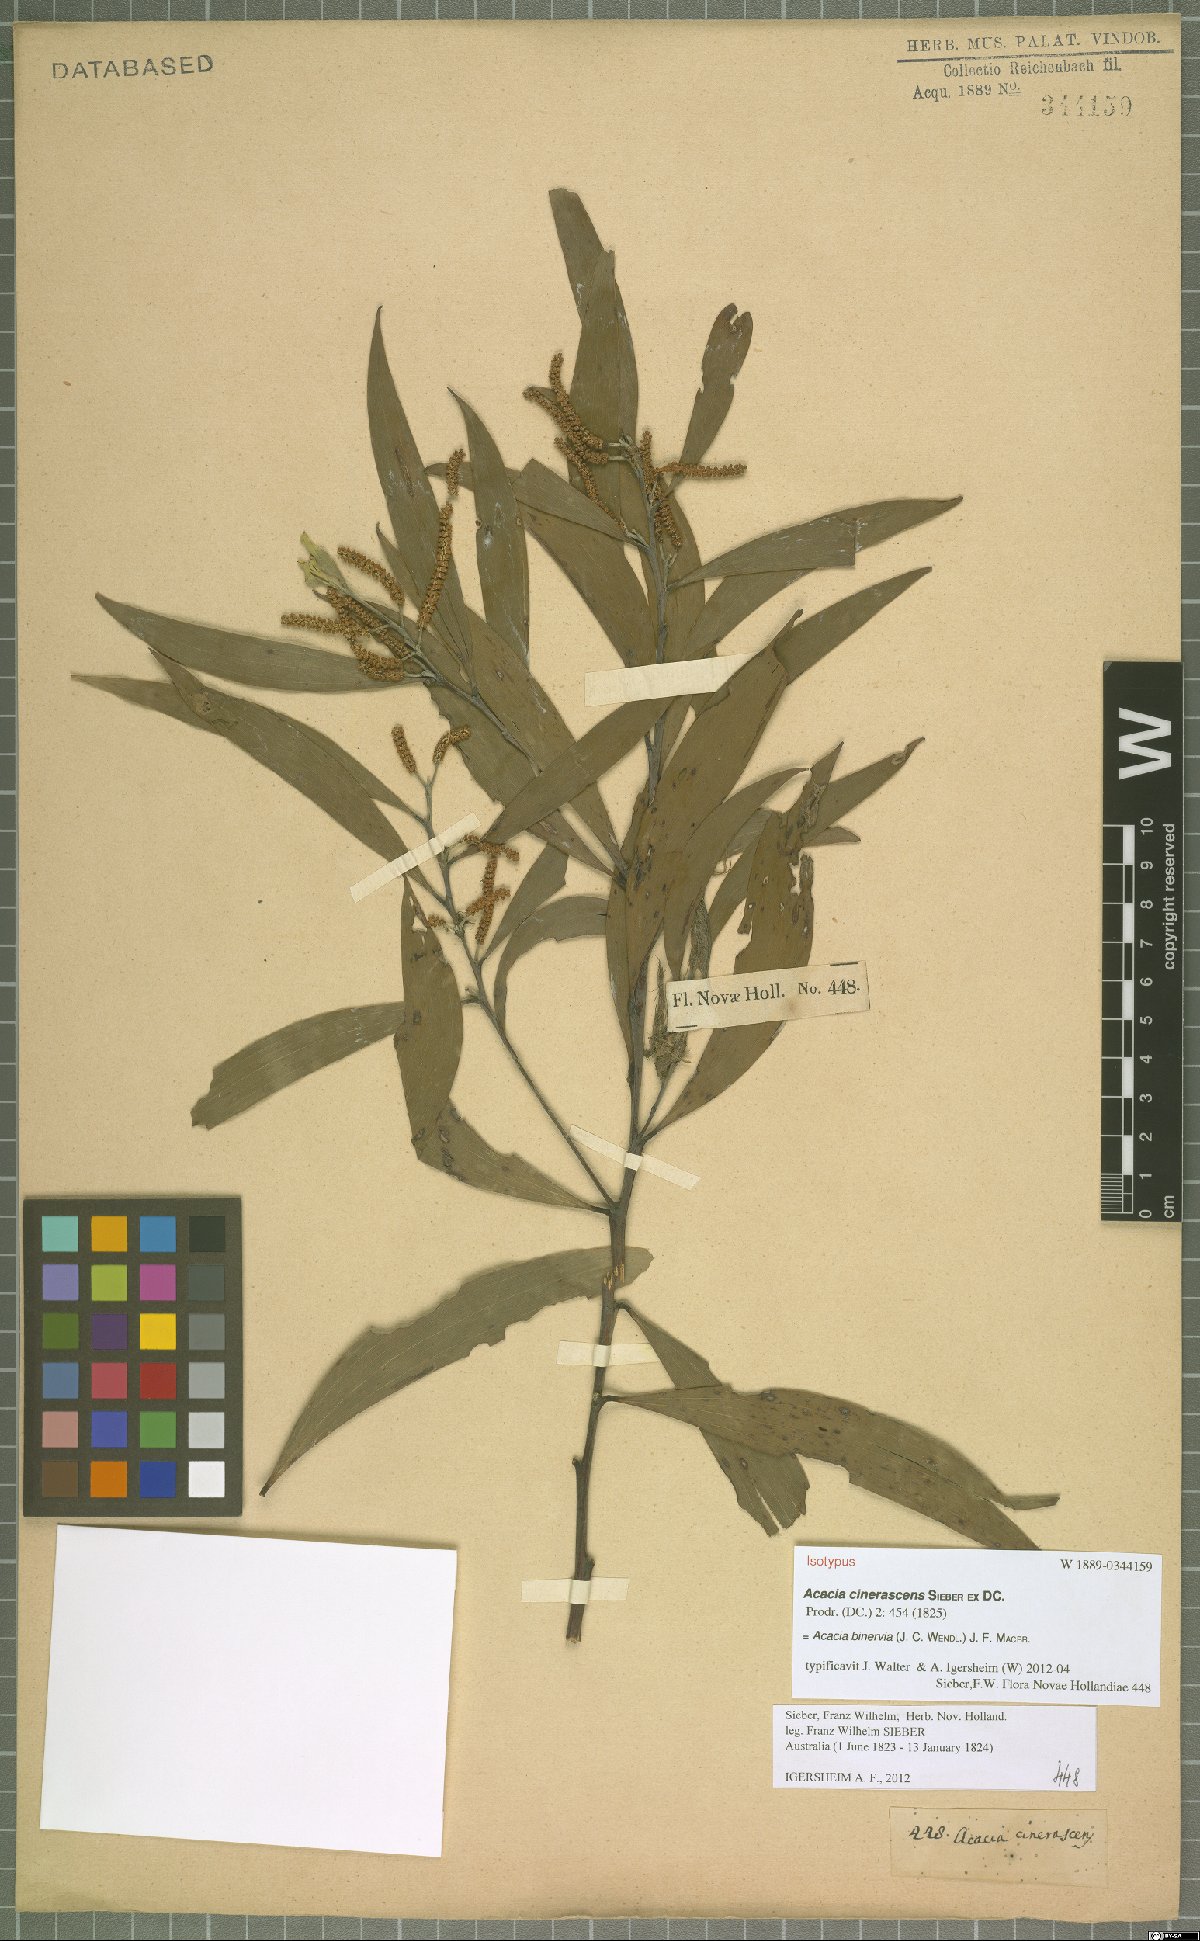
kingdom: Plantae
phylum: Tracheophyta
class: Magnoliopsida
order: Fabales
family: Fabaceae
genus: Acacia
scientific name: Acacia binervia
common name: Coast myall
